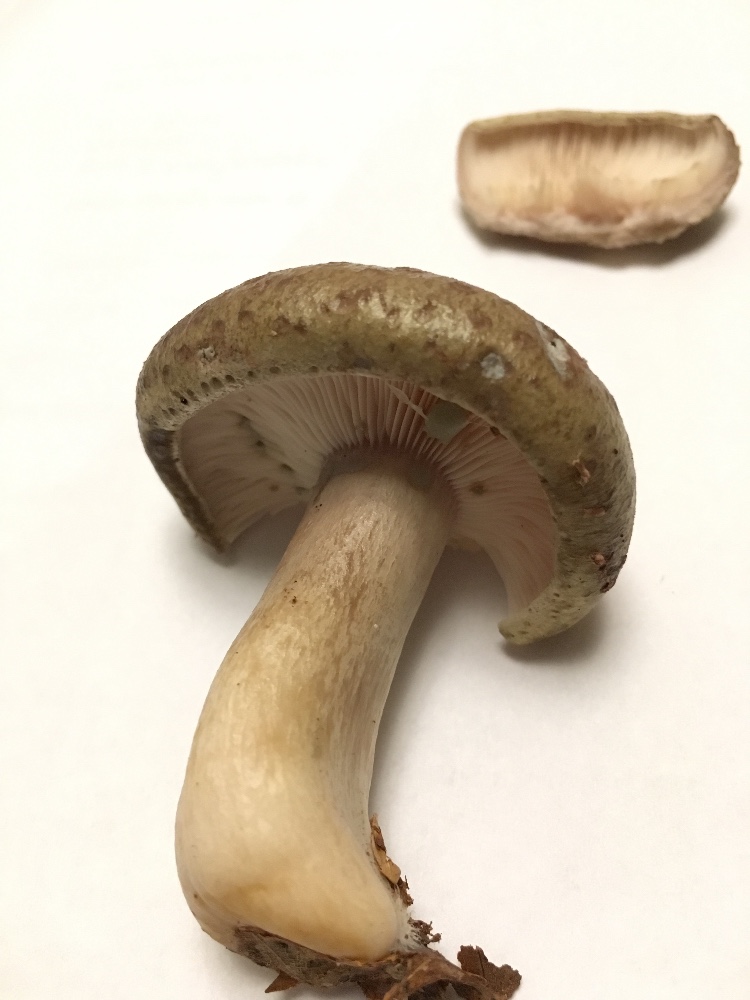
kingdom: Fungi
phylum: Basidiomycota
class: Agaricomycetes
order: Russulales
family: Russulaceae
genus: Lactarius
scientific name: Lactarius blennius
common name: dråbeplettet mælkehat
